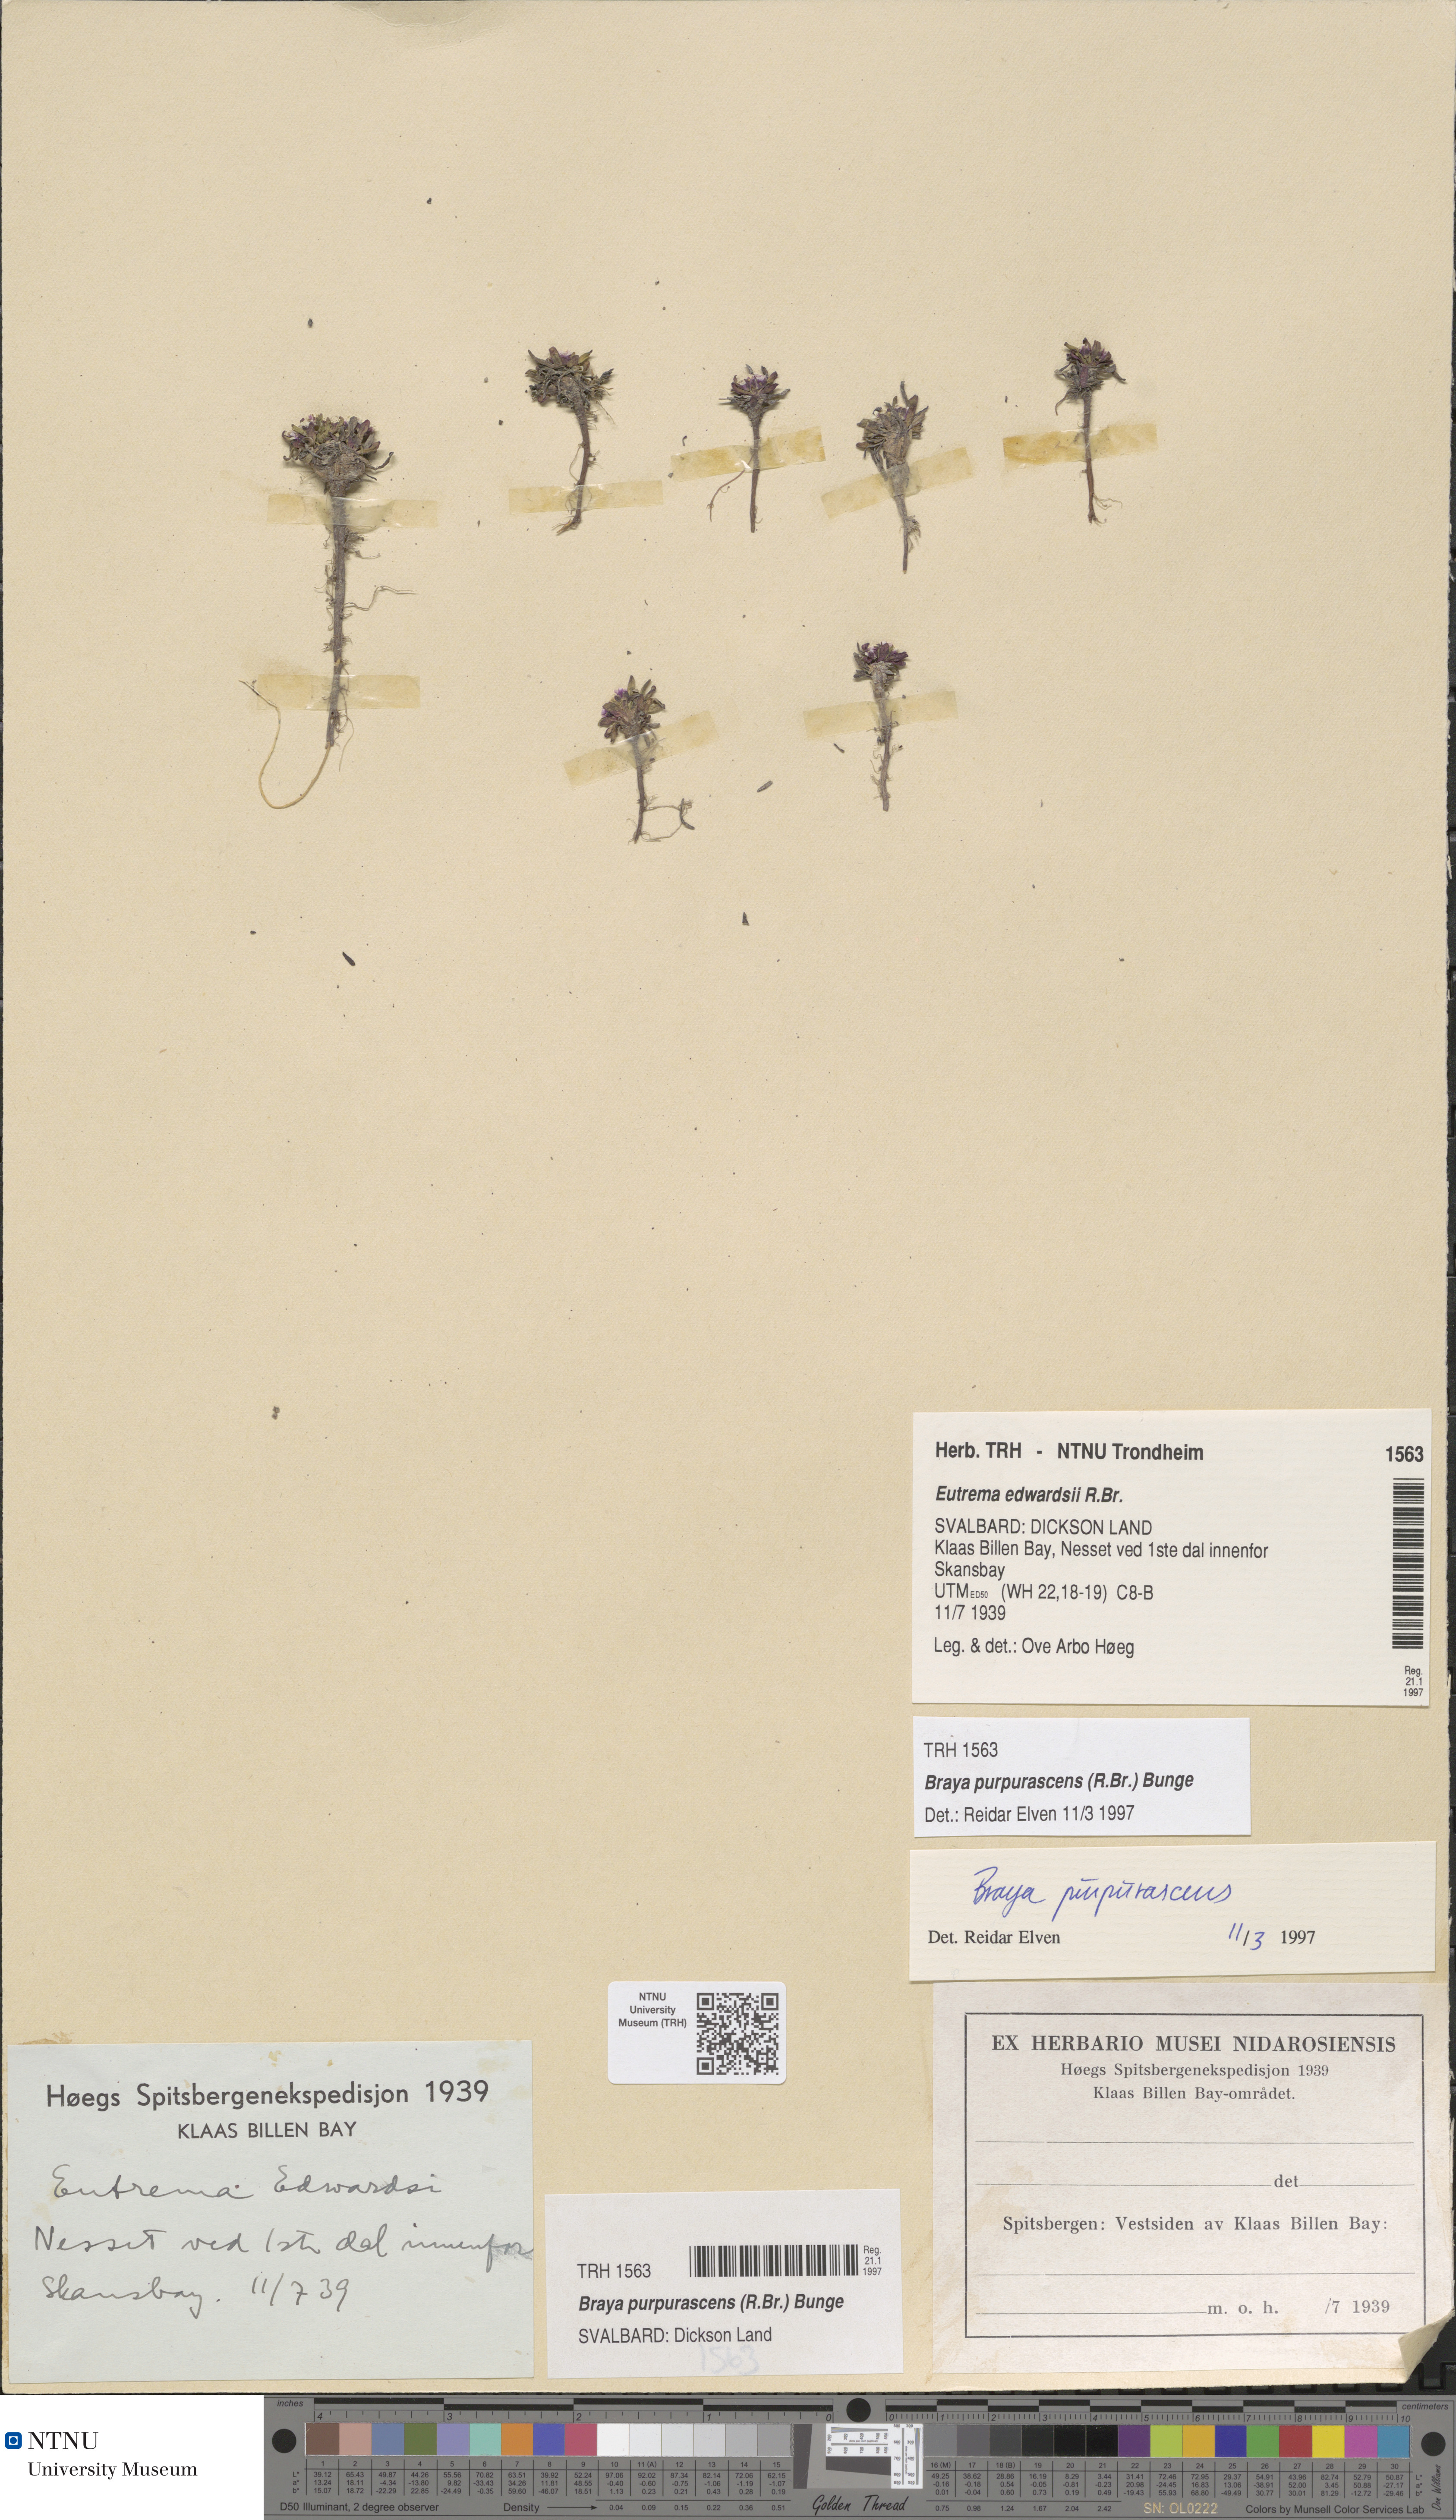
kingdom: Plantae
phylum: Tracheophyta
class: Magnoliopsida
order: Brassicales
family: Brassicaceae
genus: Braya
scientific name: Braya purpurascens
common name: Alpine braya
